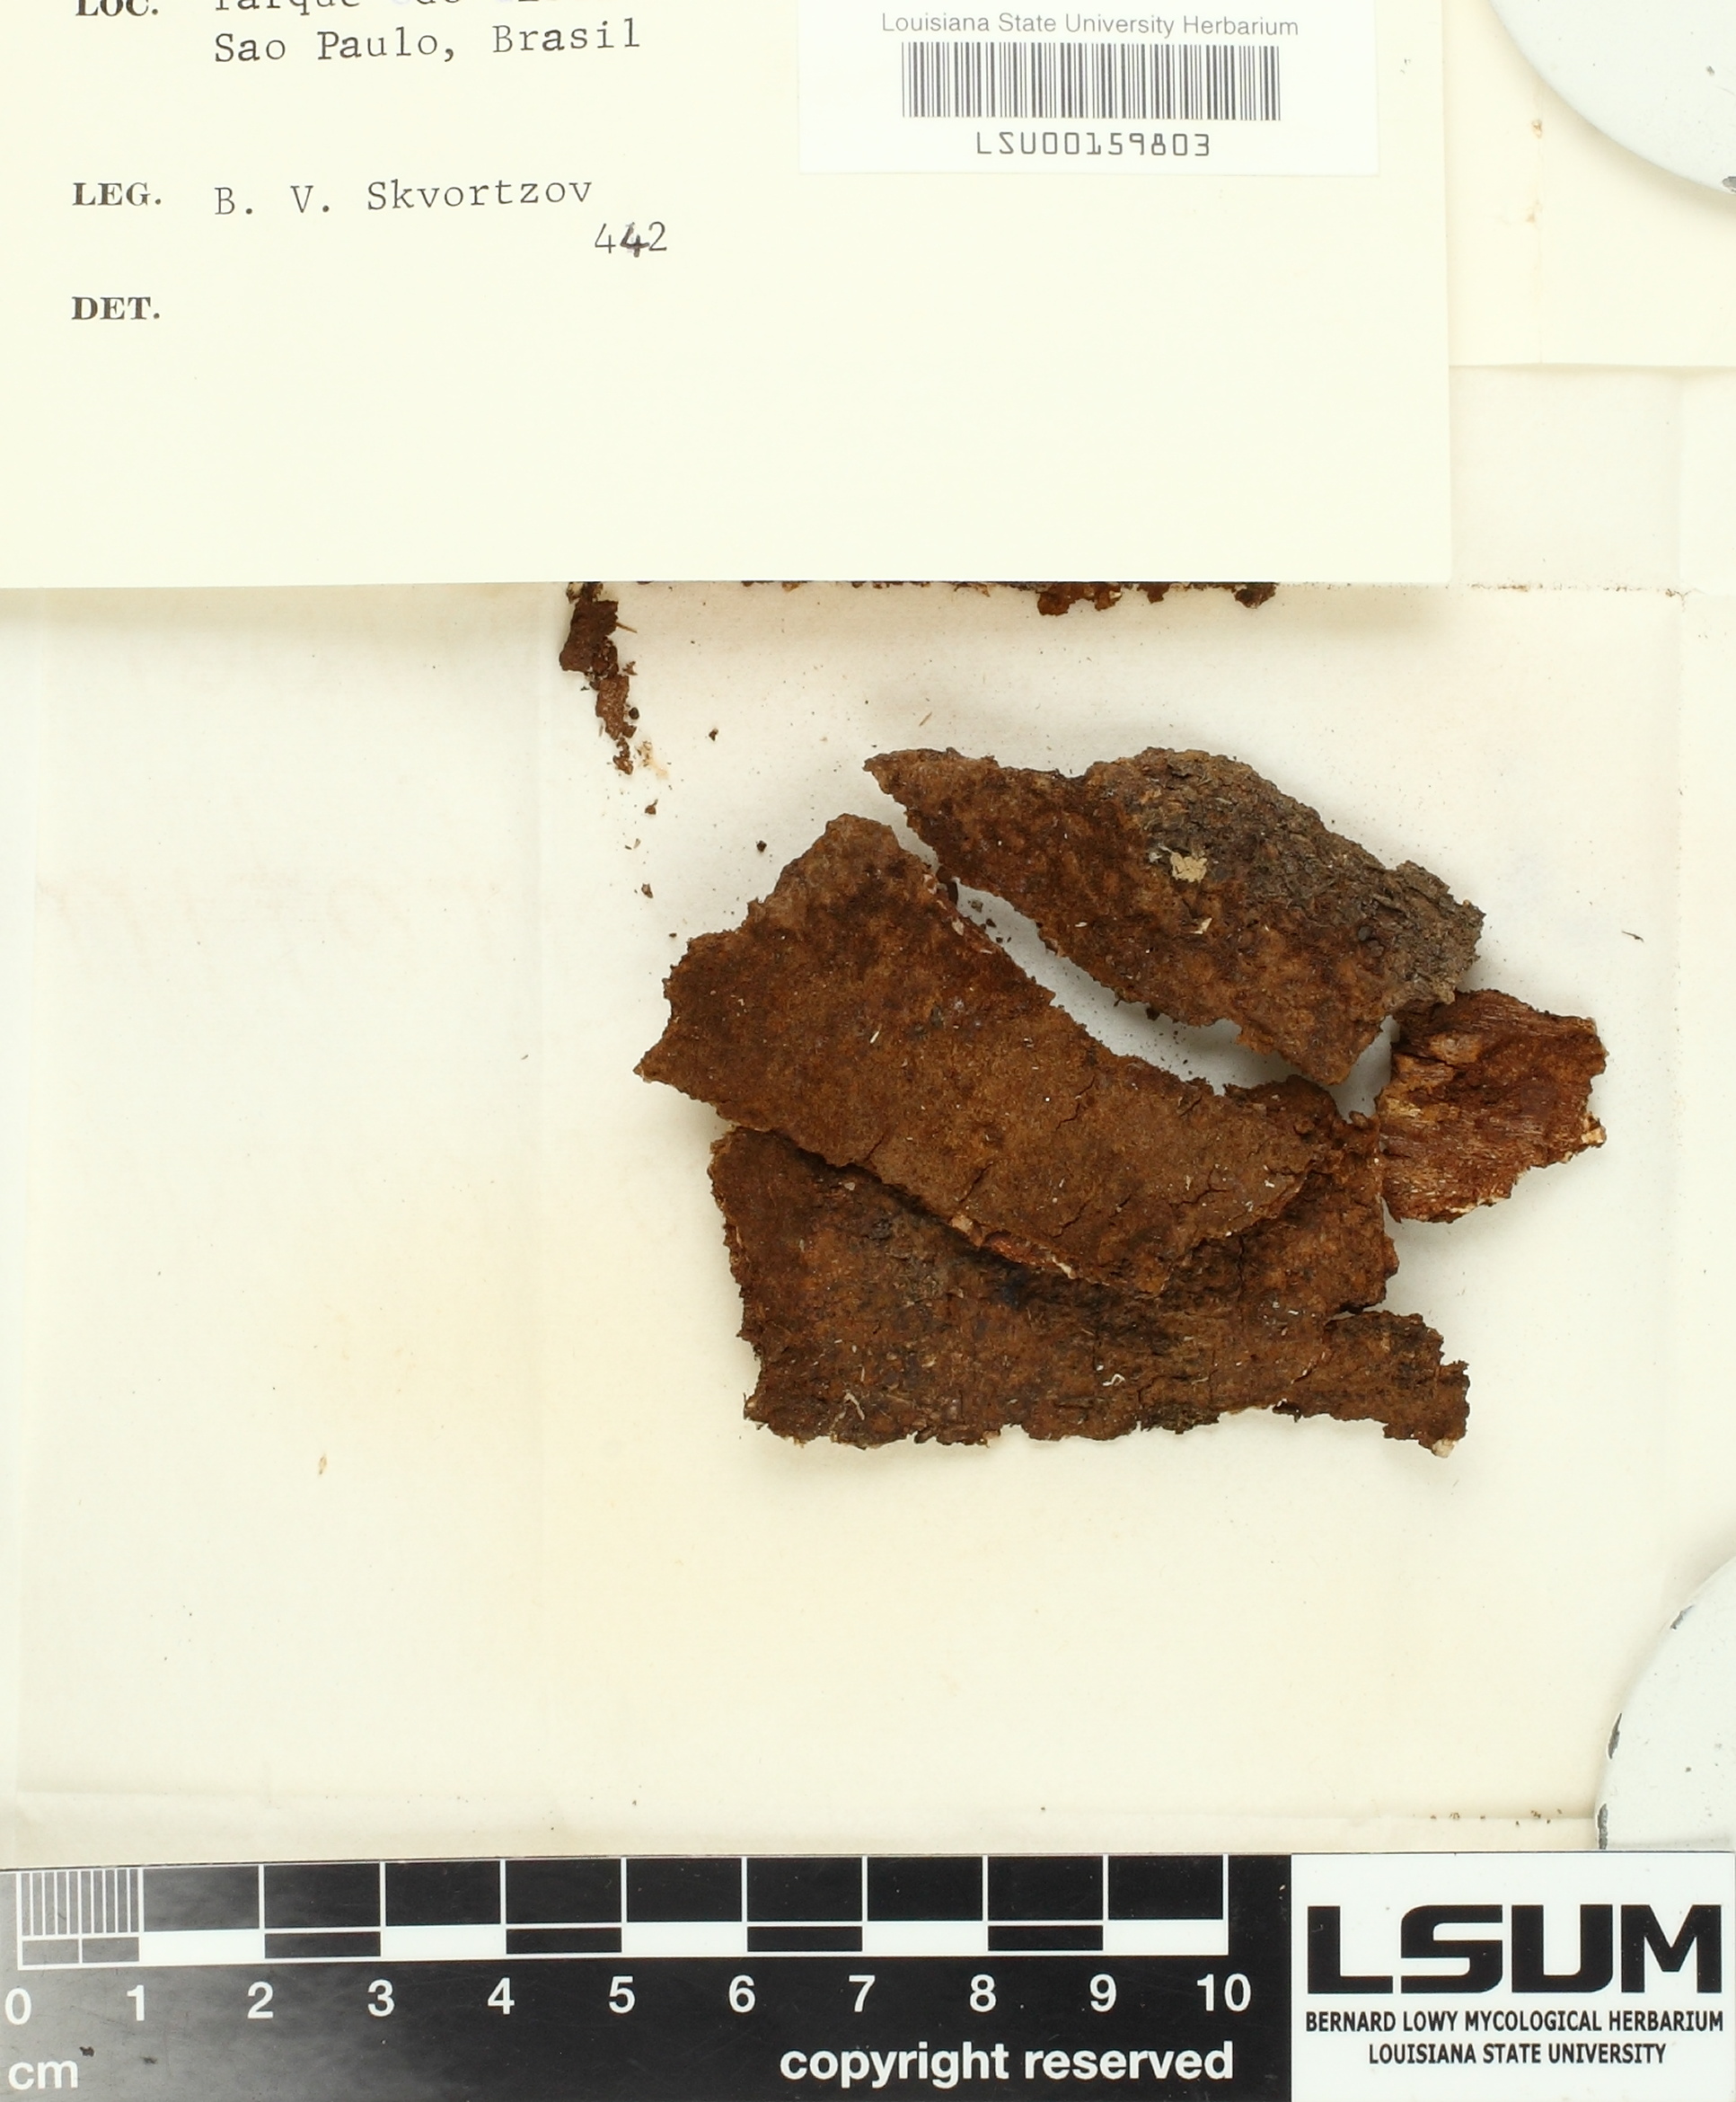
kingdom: Fungi
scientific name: Fungi
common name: Fungi
